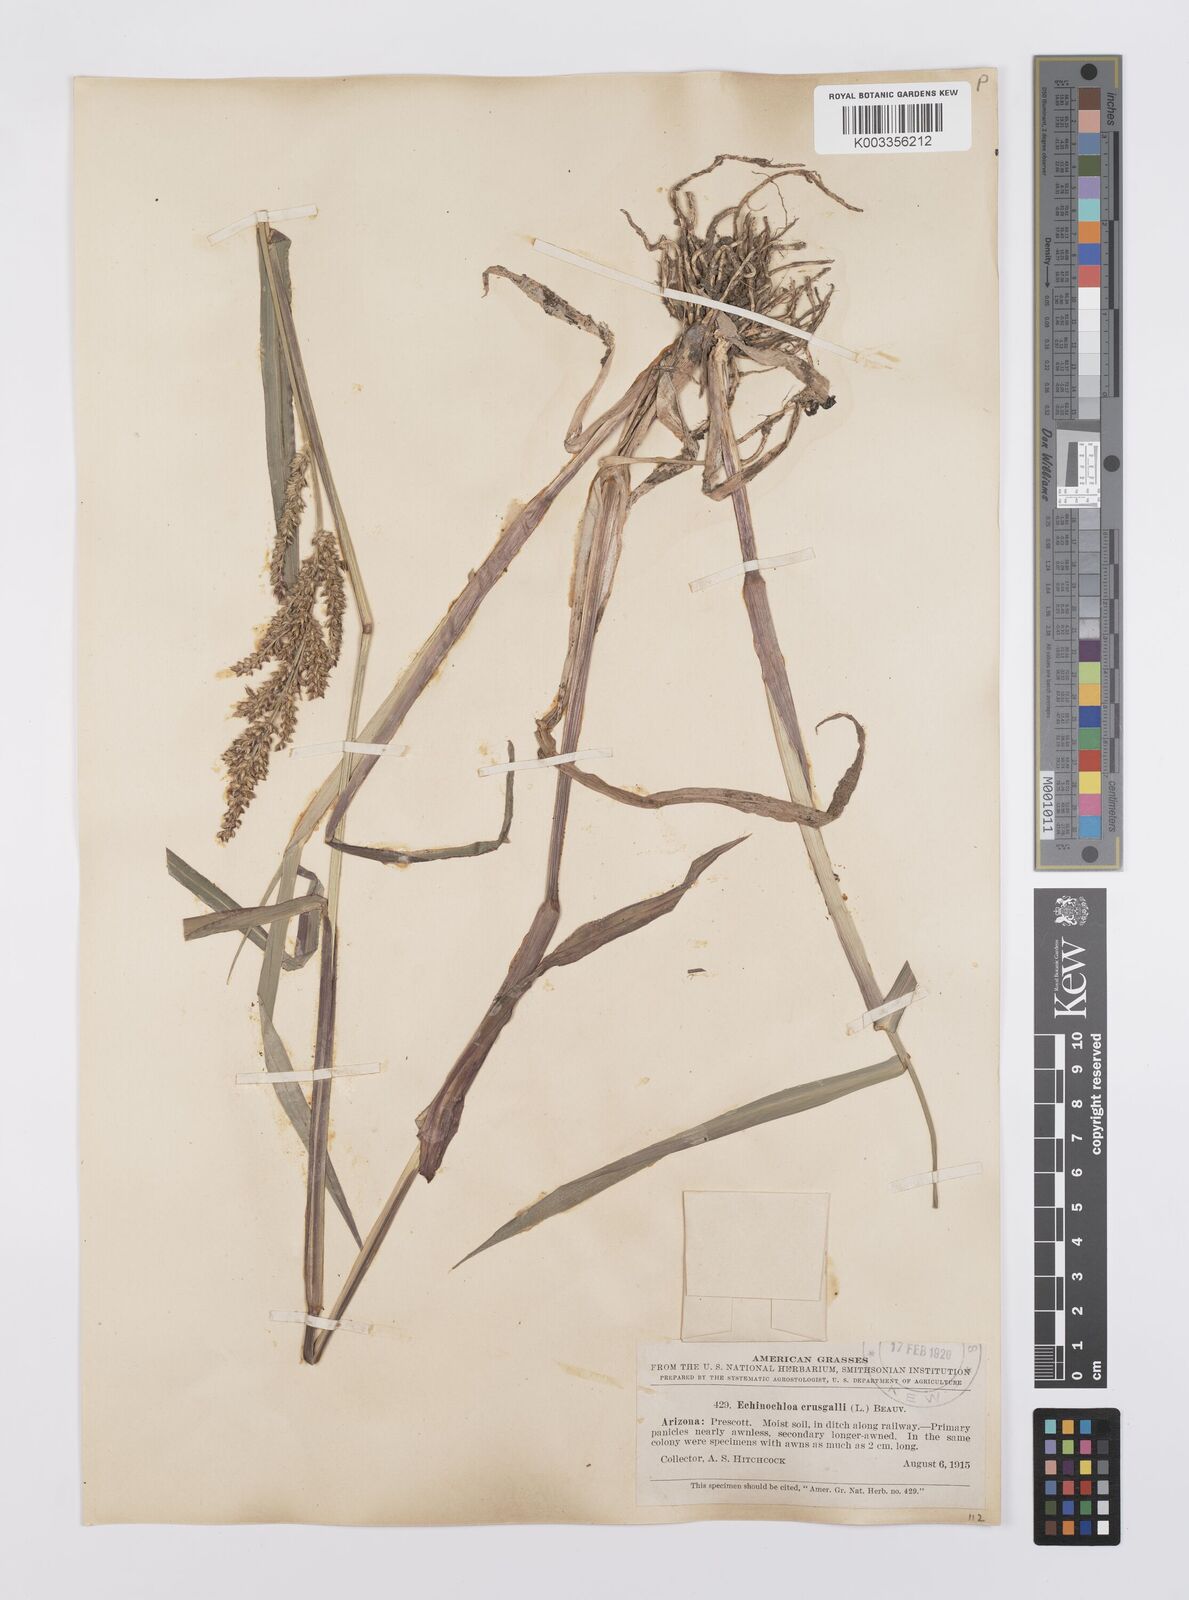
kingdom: Plantae
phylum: Tracheophyta
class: Liliopsida
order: Poales
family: Poaceae
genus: Echinochloa
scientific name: Echinochloa crus-galli
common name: Cockspur
